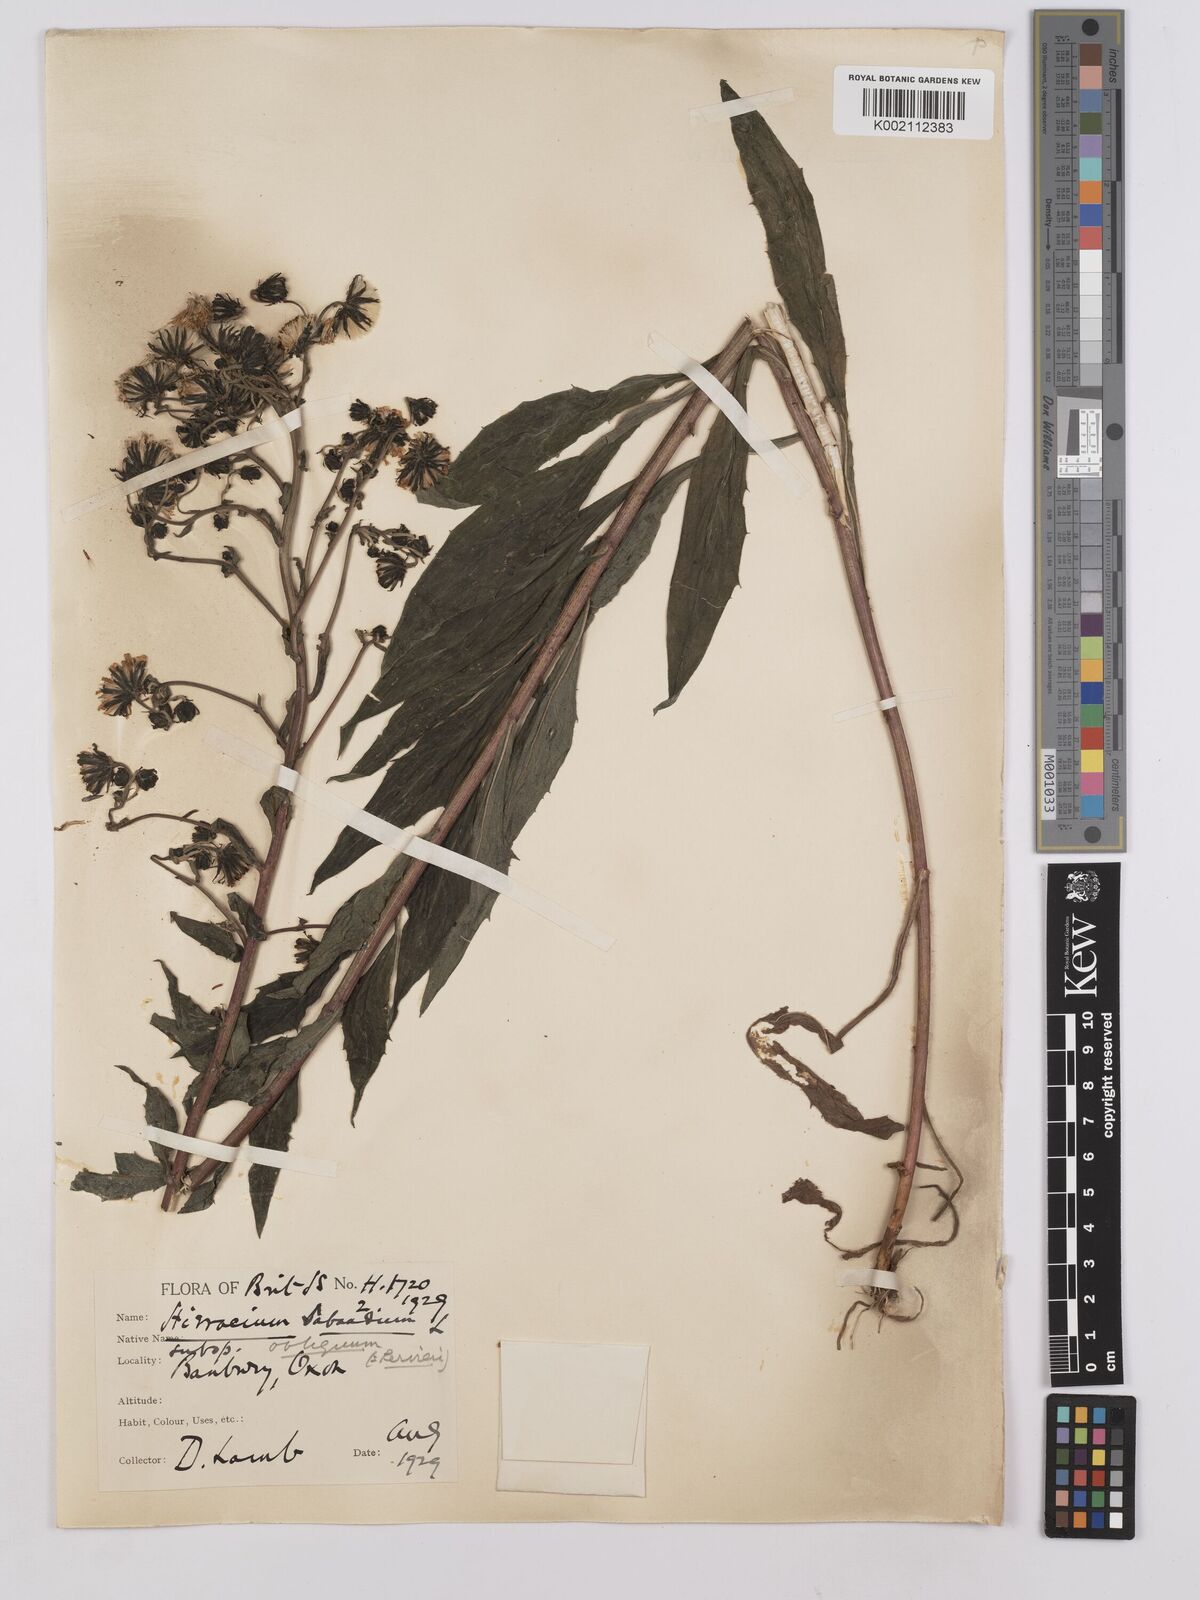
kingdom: Plantae
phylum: Tracheophyta
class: Magnoliopsida
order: Asterales
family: Asteraceae
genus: Hieracium
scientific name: Hieracium sabaudum
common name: New england hawkweed
